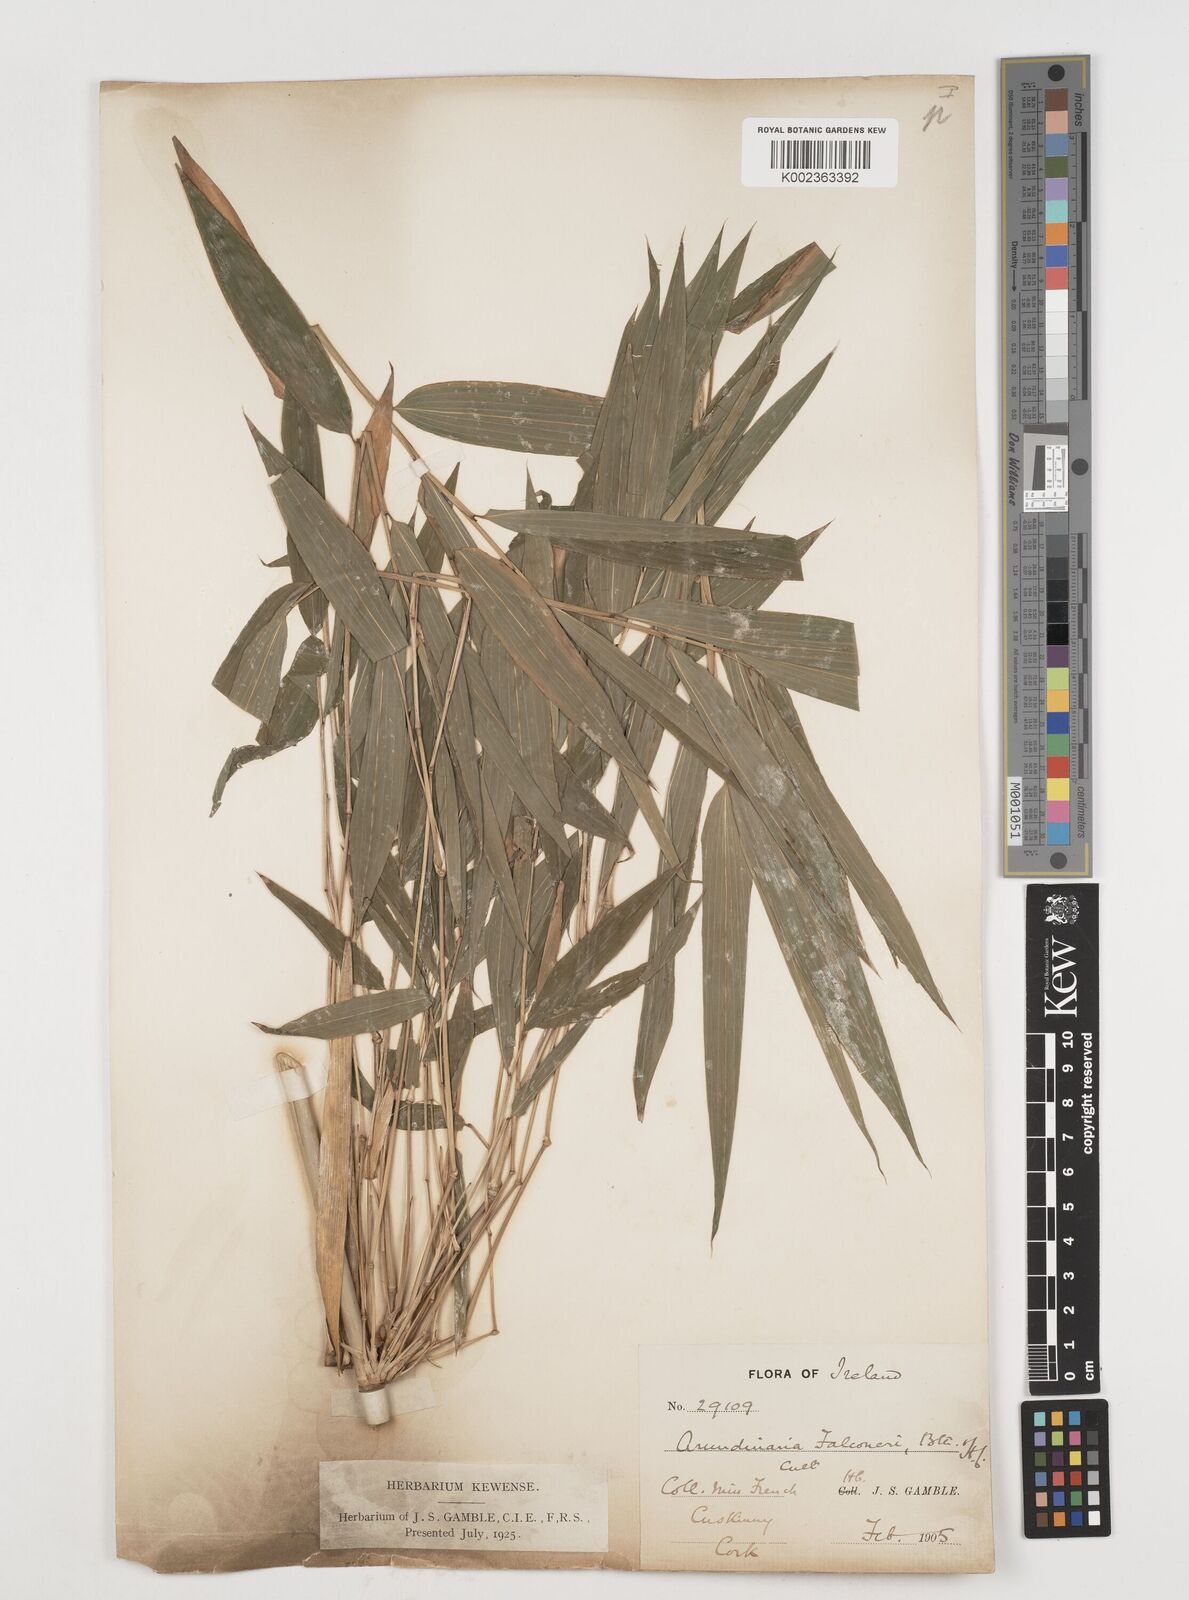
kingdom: Plantae
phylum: Tracheophyta
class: Liliopsida
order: Poales
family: Poaceae
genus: Himalayacalamus
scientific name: Himalayacalamus
